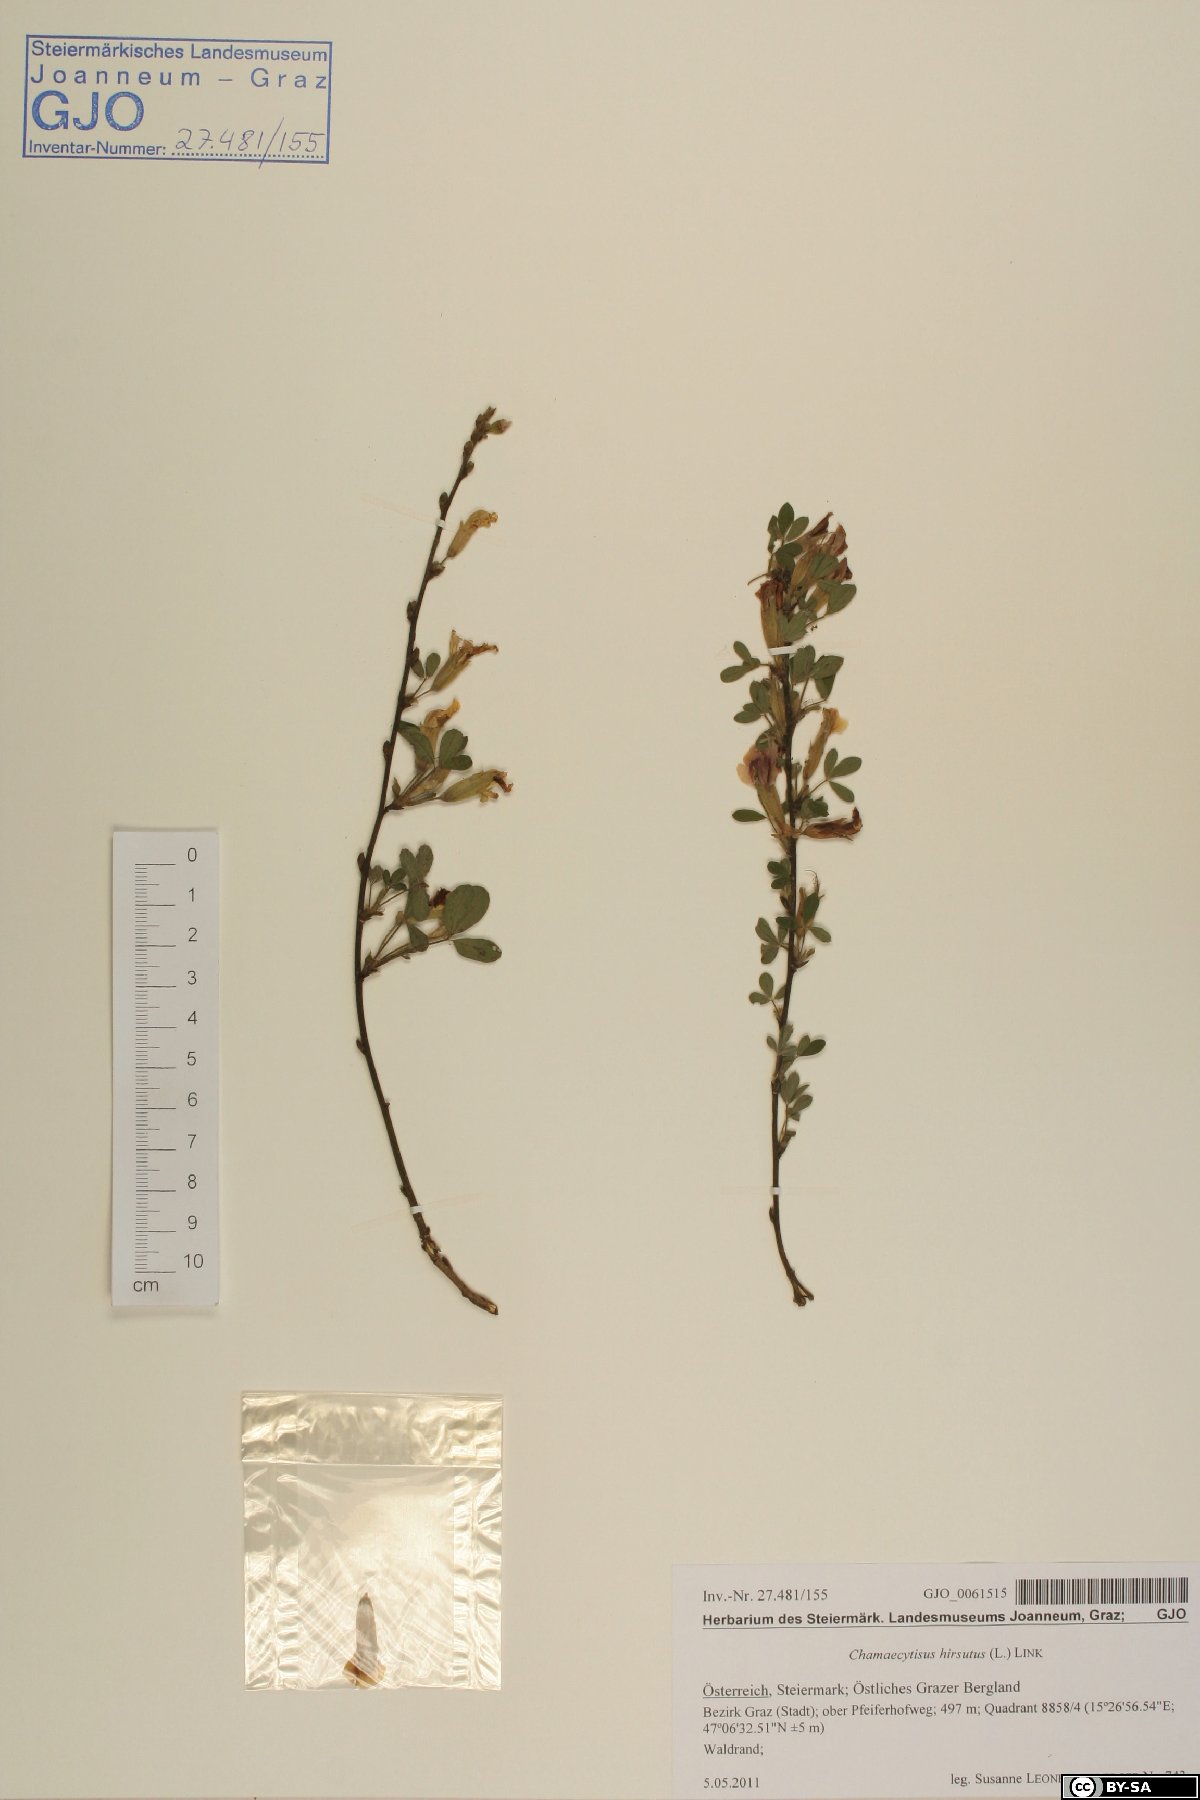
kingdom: Plantae
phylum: Tracheophyta
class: Magnoliopsida
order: Fabales
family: Fabaceae
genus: Chamaecytisus
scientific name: Chamaecytisus hirsutus
